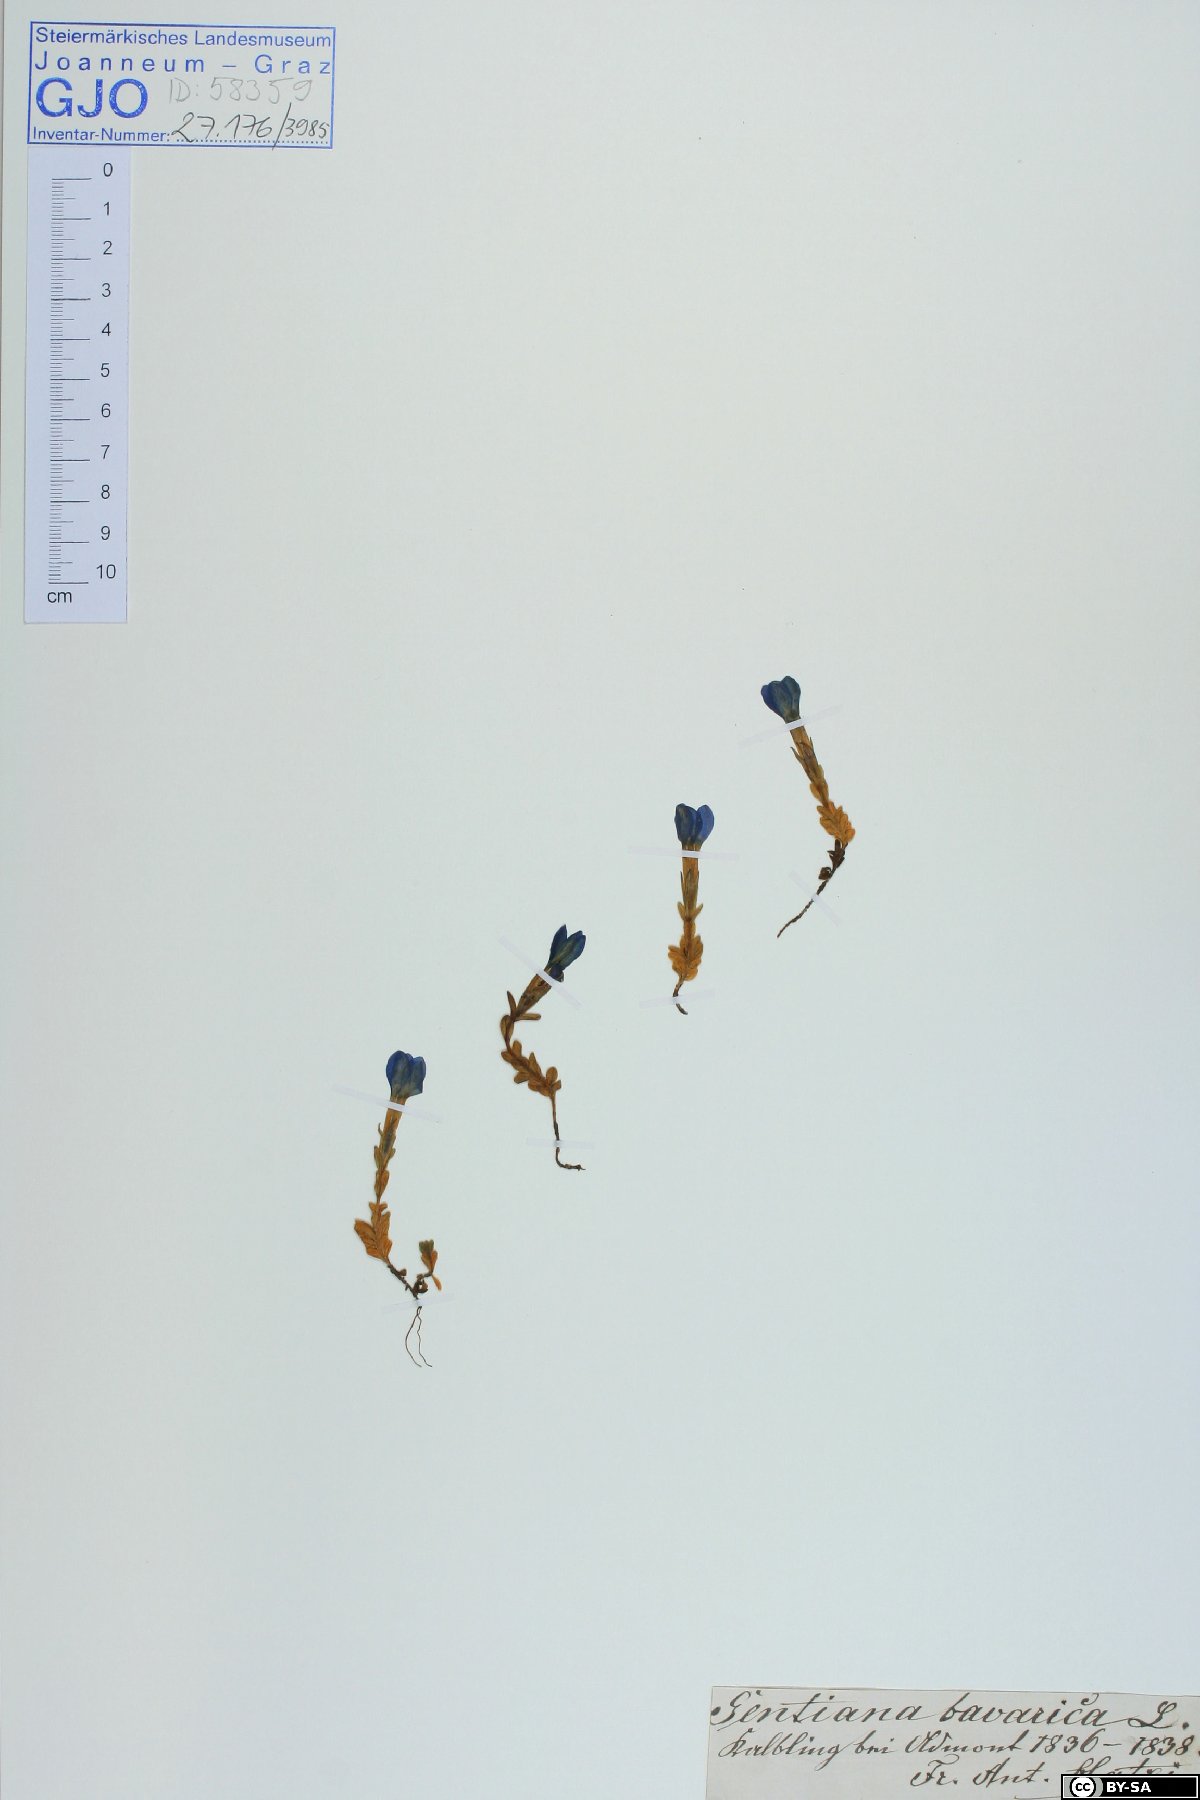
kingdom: Plantae
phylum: Tracheophyta
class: Magnoliopsida
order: Gentianales
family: Gentianaceae
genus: Gentiana
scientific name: Gentiana bavarica
